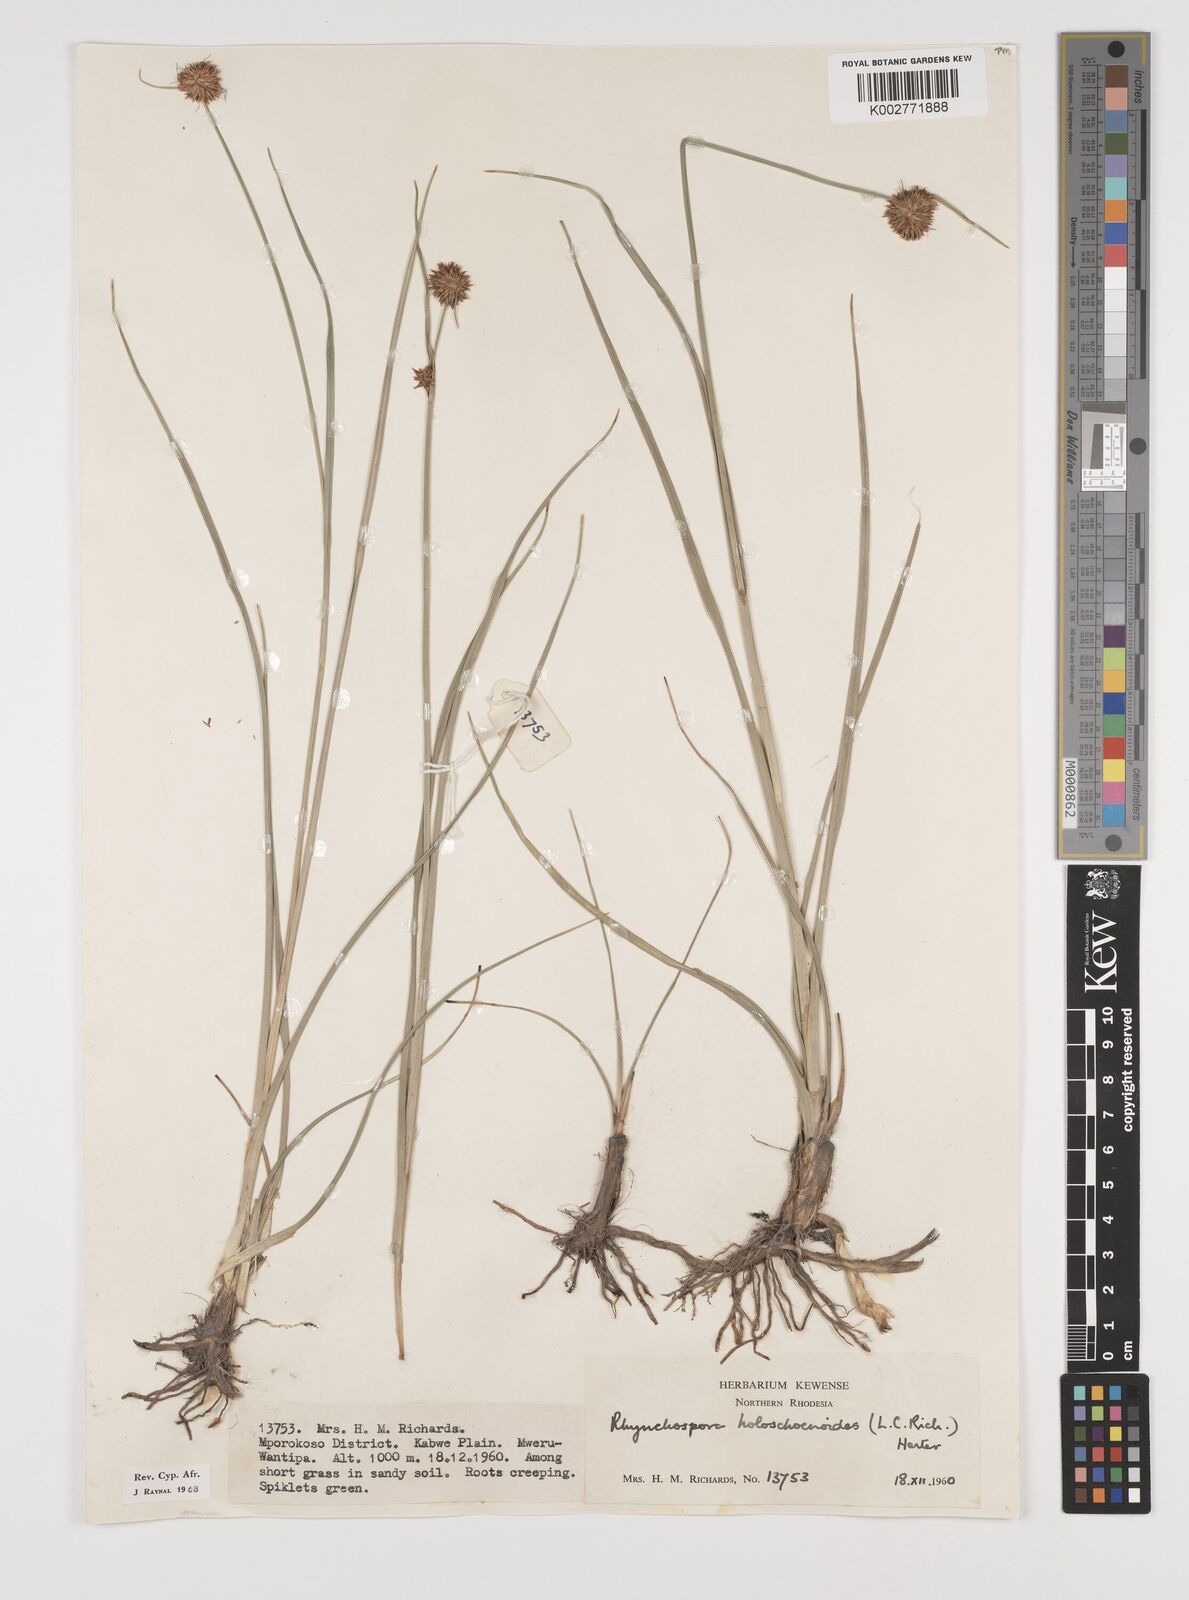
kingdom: Plantae
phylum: Tracheophyta
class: Liliopsida
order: Poales
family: Cyperaceae
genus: Rhynchospora
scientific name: Rhynchospora holoschoenoides
